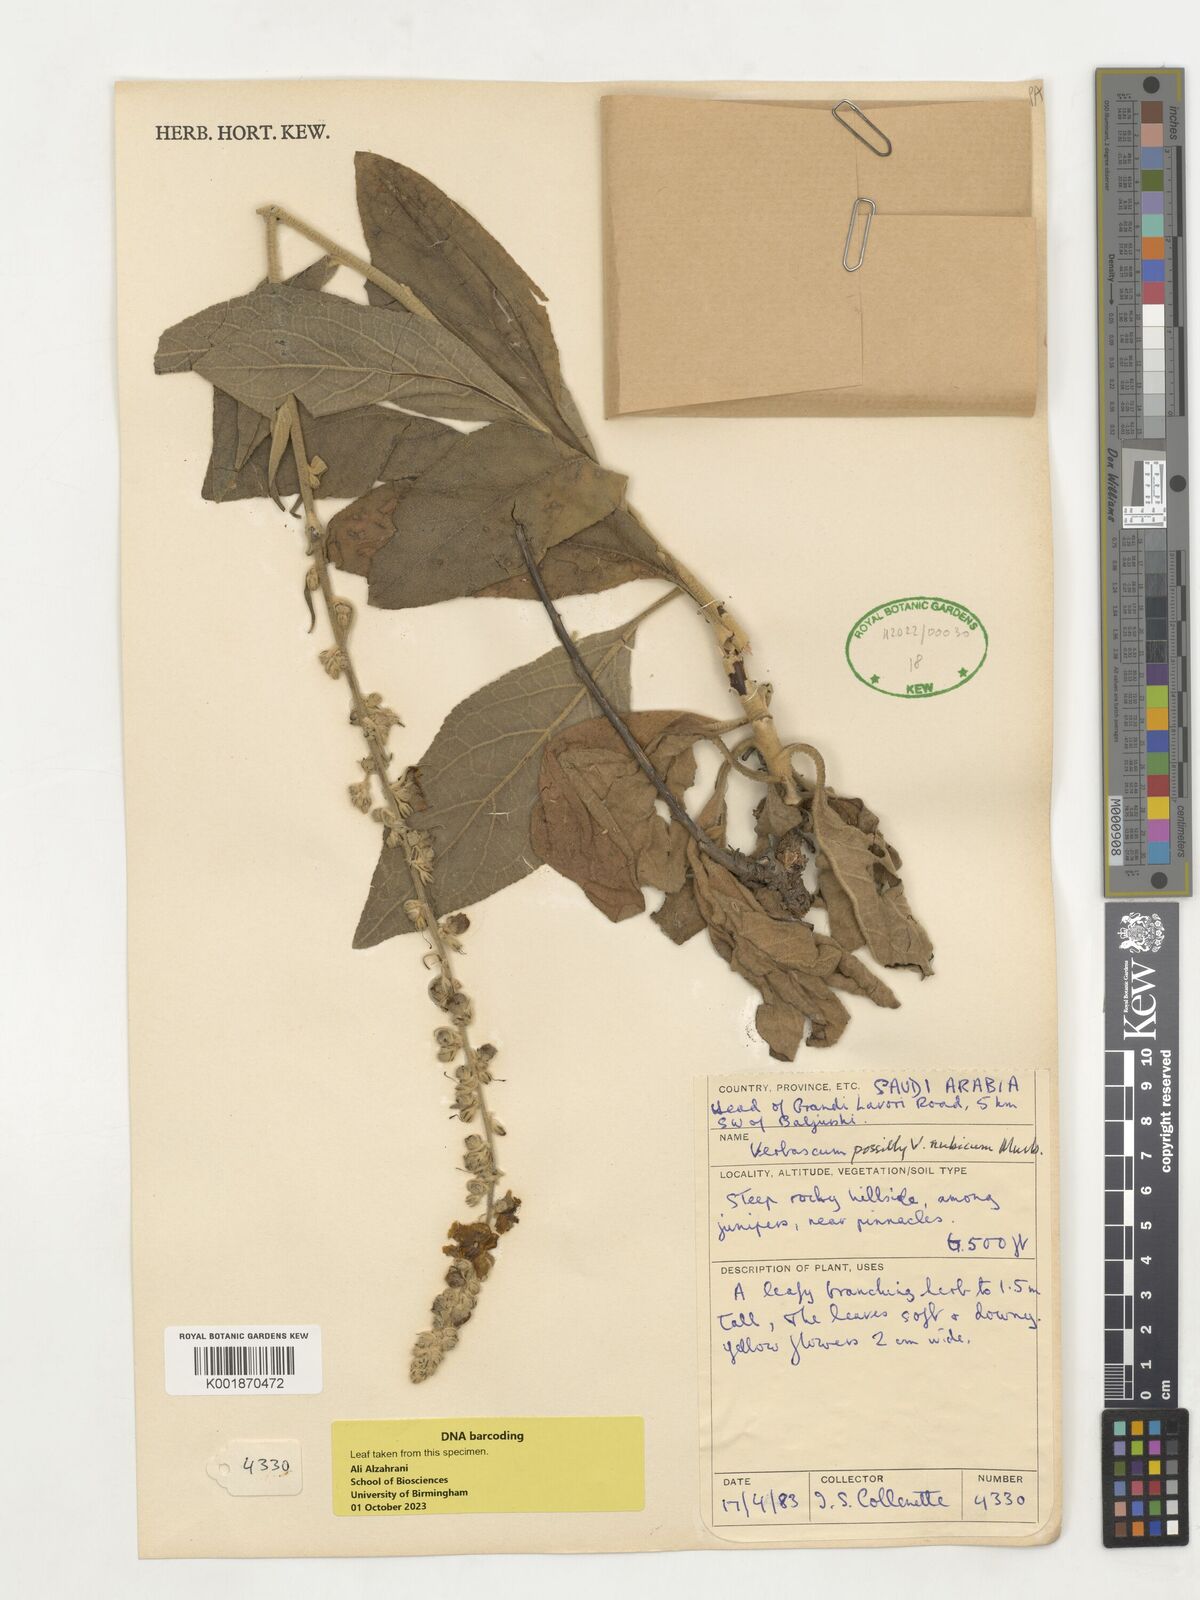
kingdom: Plantae
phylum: Tracheophyta
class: Magnoliopsida
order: Lamiales
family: Scrophulariaceae
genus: Verbascum
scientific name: Verbascum
